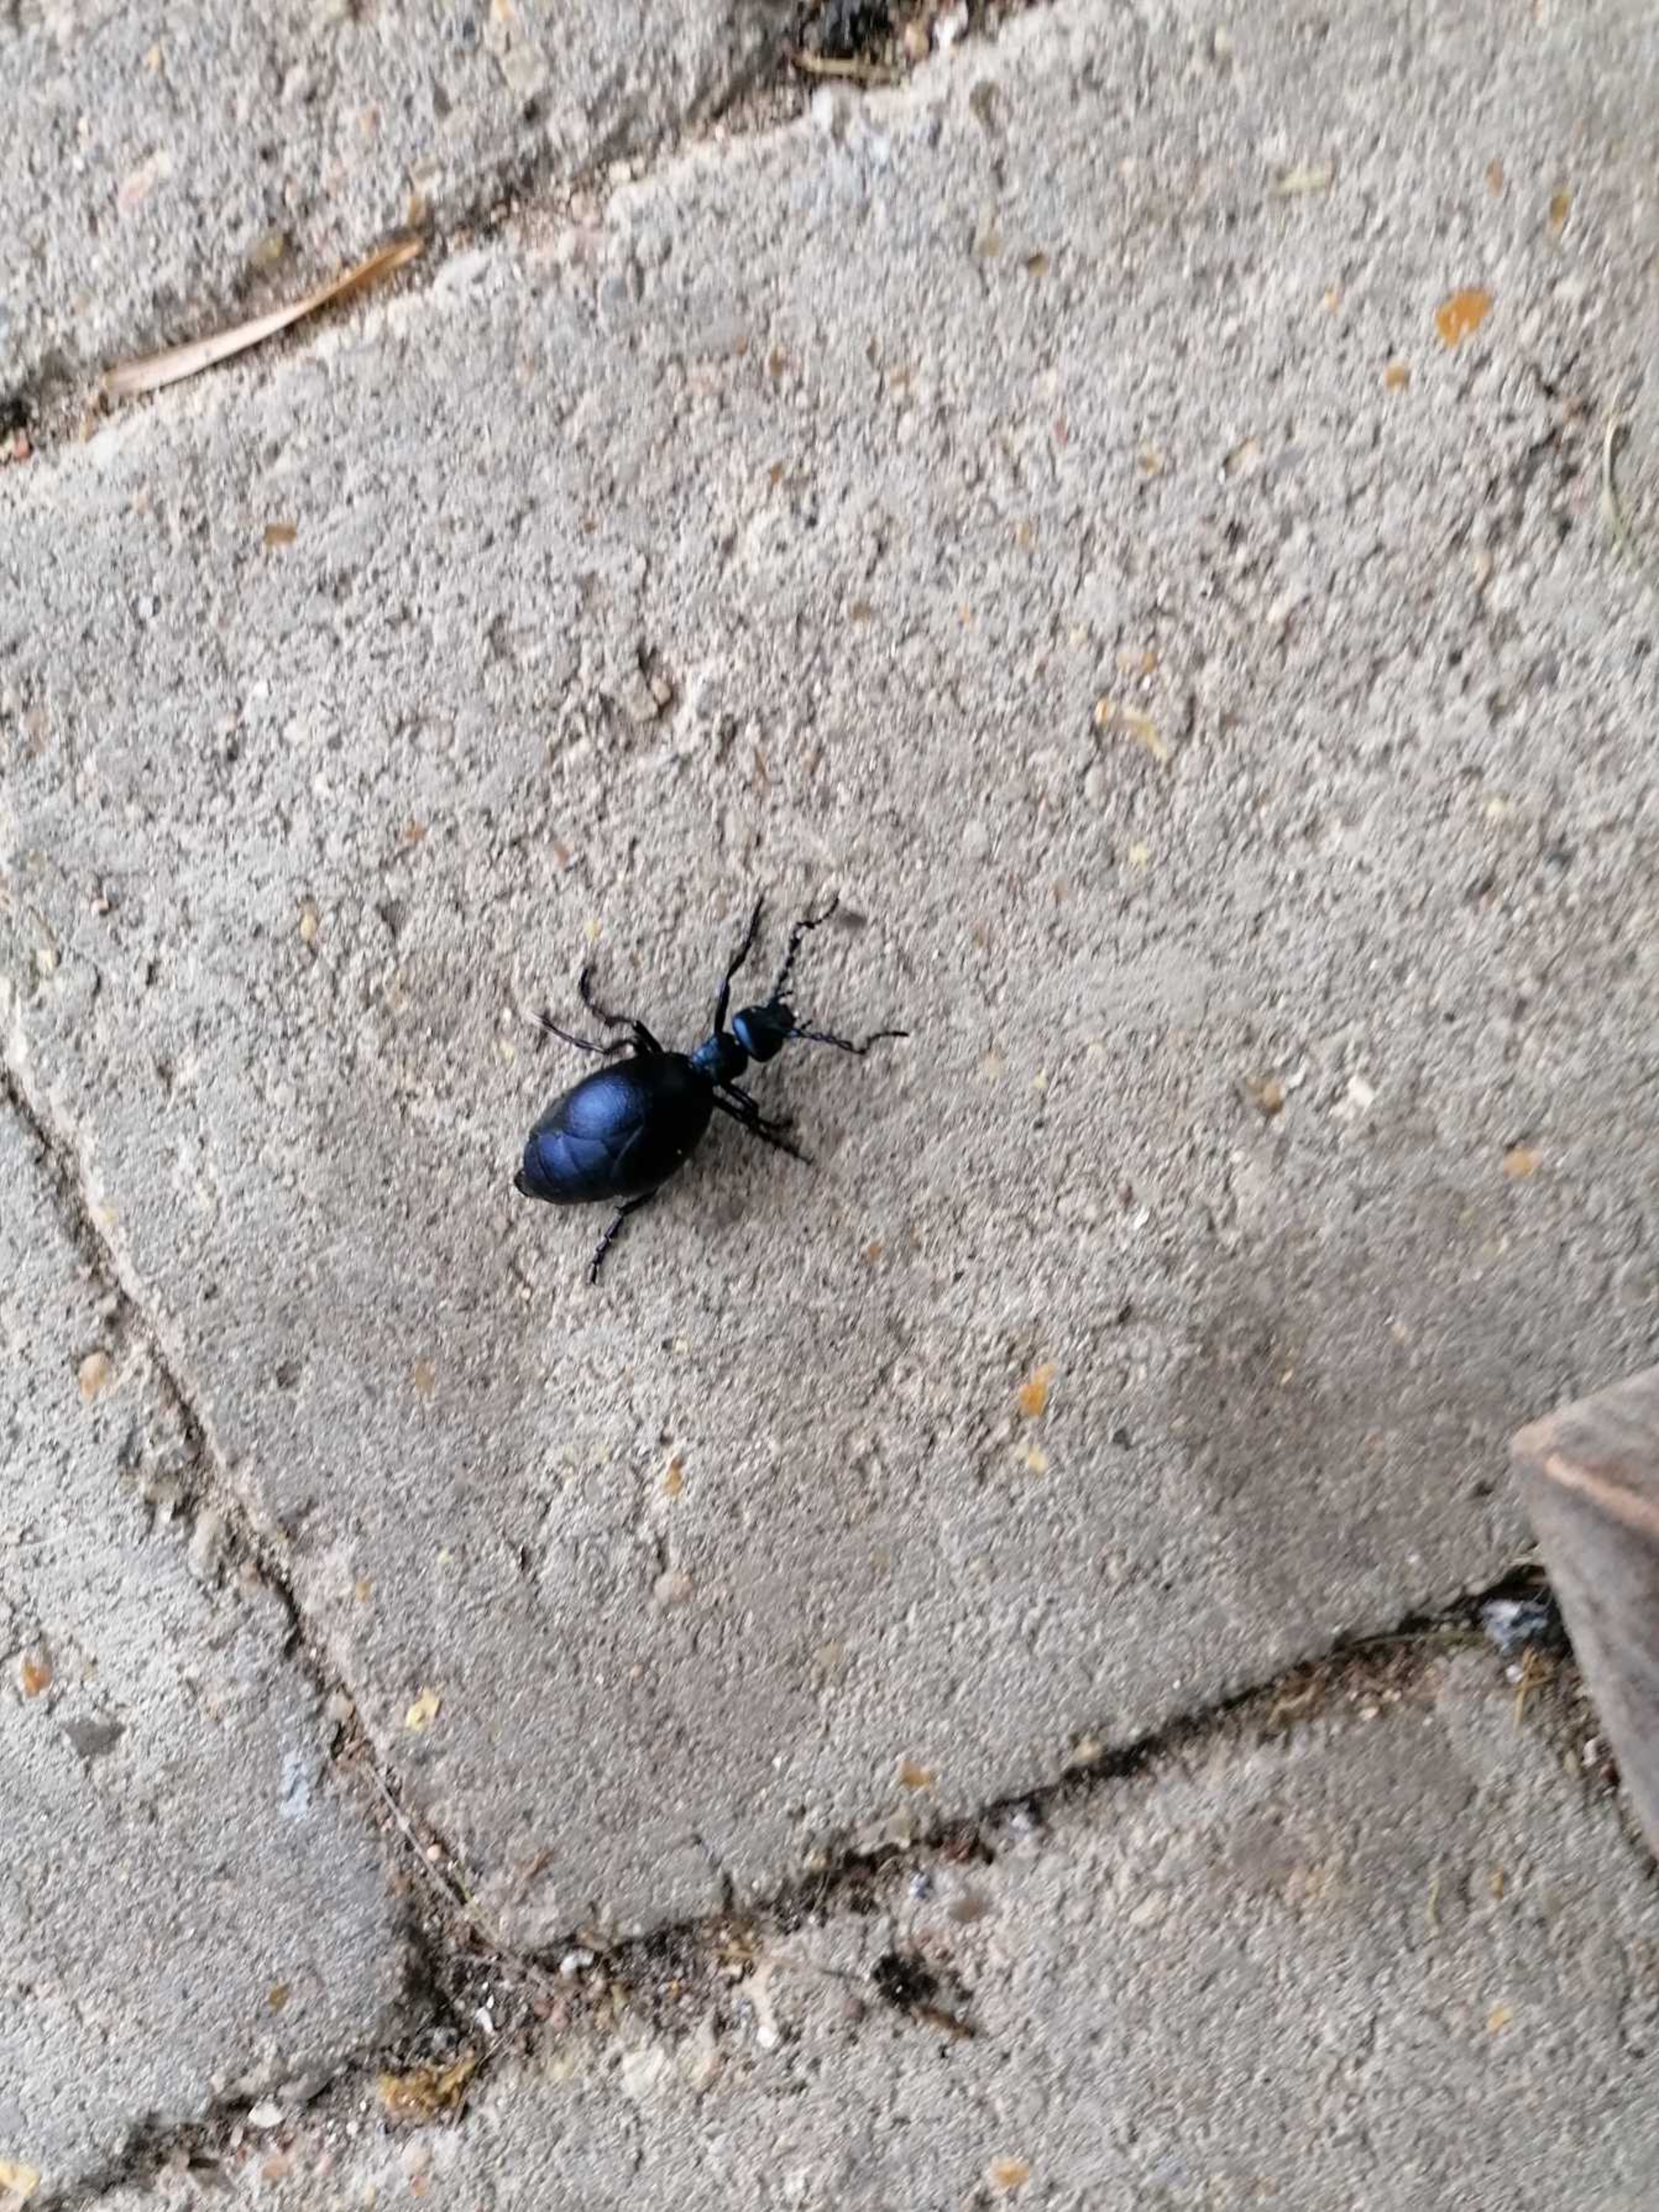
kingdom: Animalia
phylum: Arthropoda
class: Insecta
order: Coleoptera
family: Meloidae
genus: Meloe
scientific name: Meloe violaceus
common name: Blå oliebille
